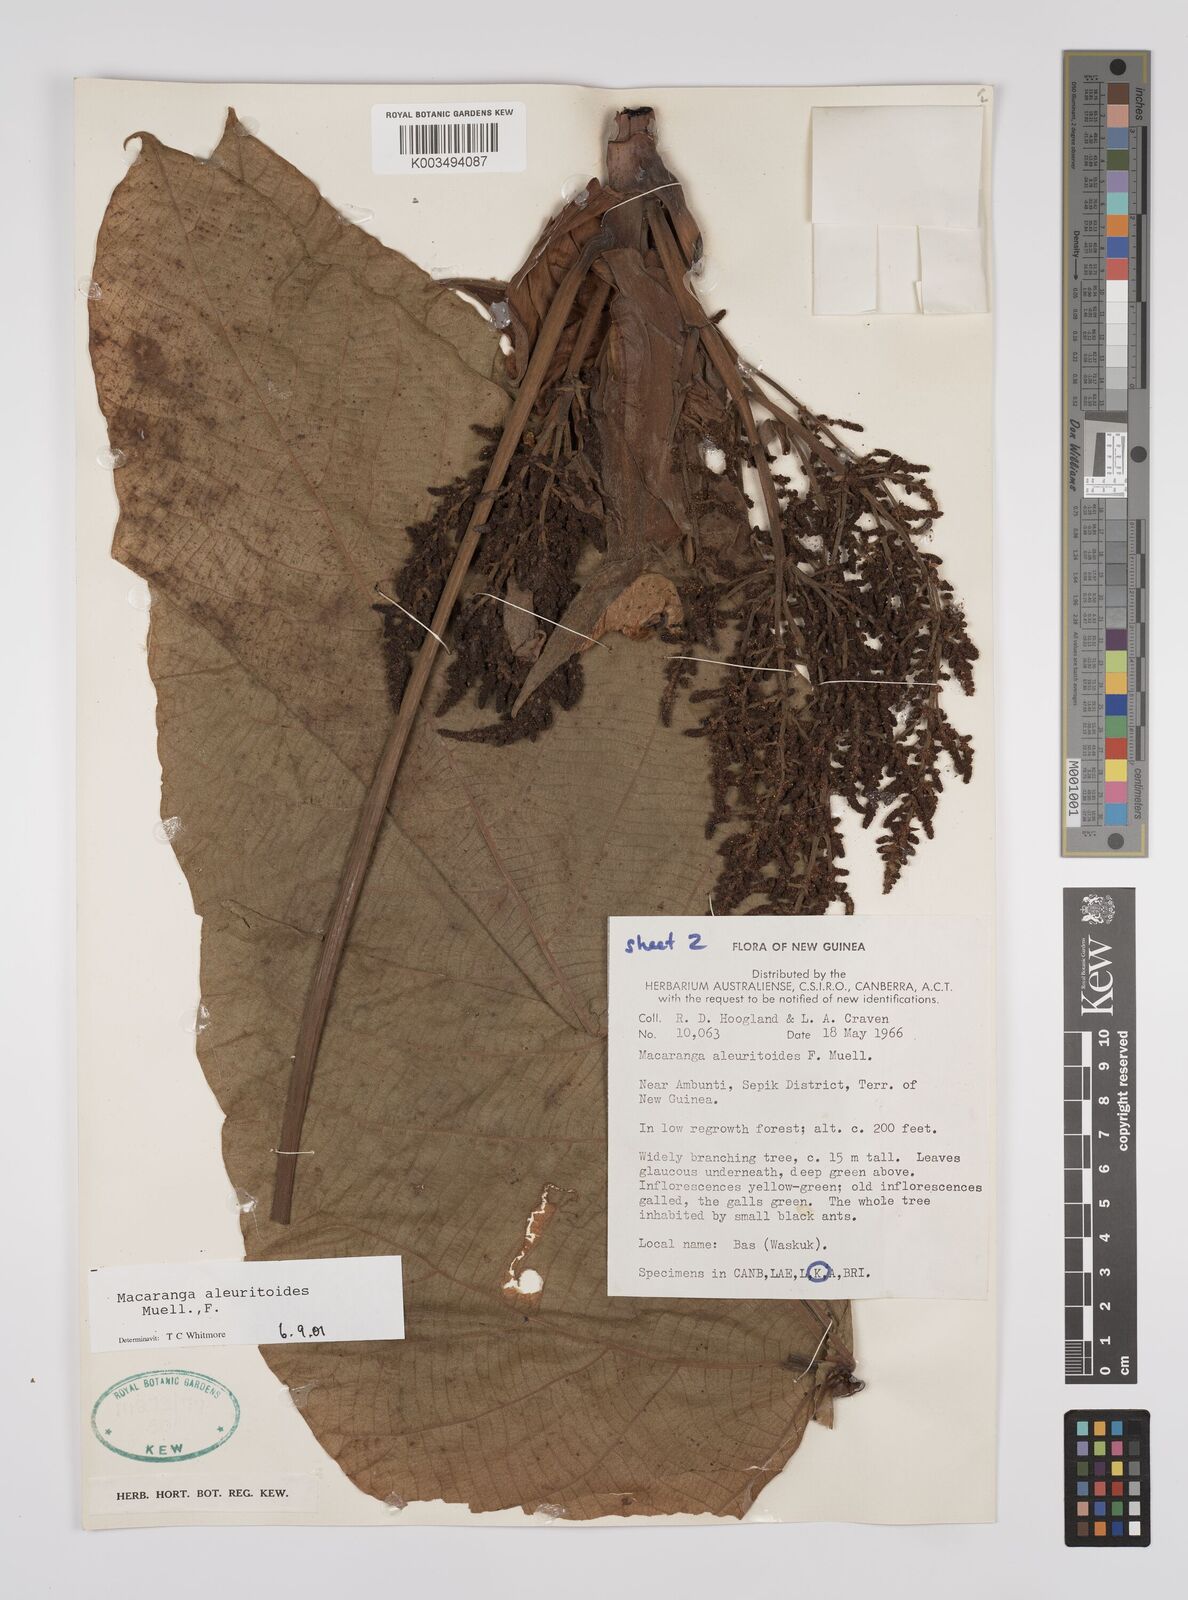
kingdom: Plantae
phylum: Tracheophyta
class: Magnoliopsida
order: Malpighiales
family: Euphorbiaceae
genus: Macaranga
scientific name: Macaranga aleuritoides
